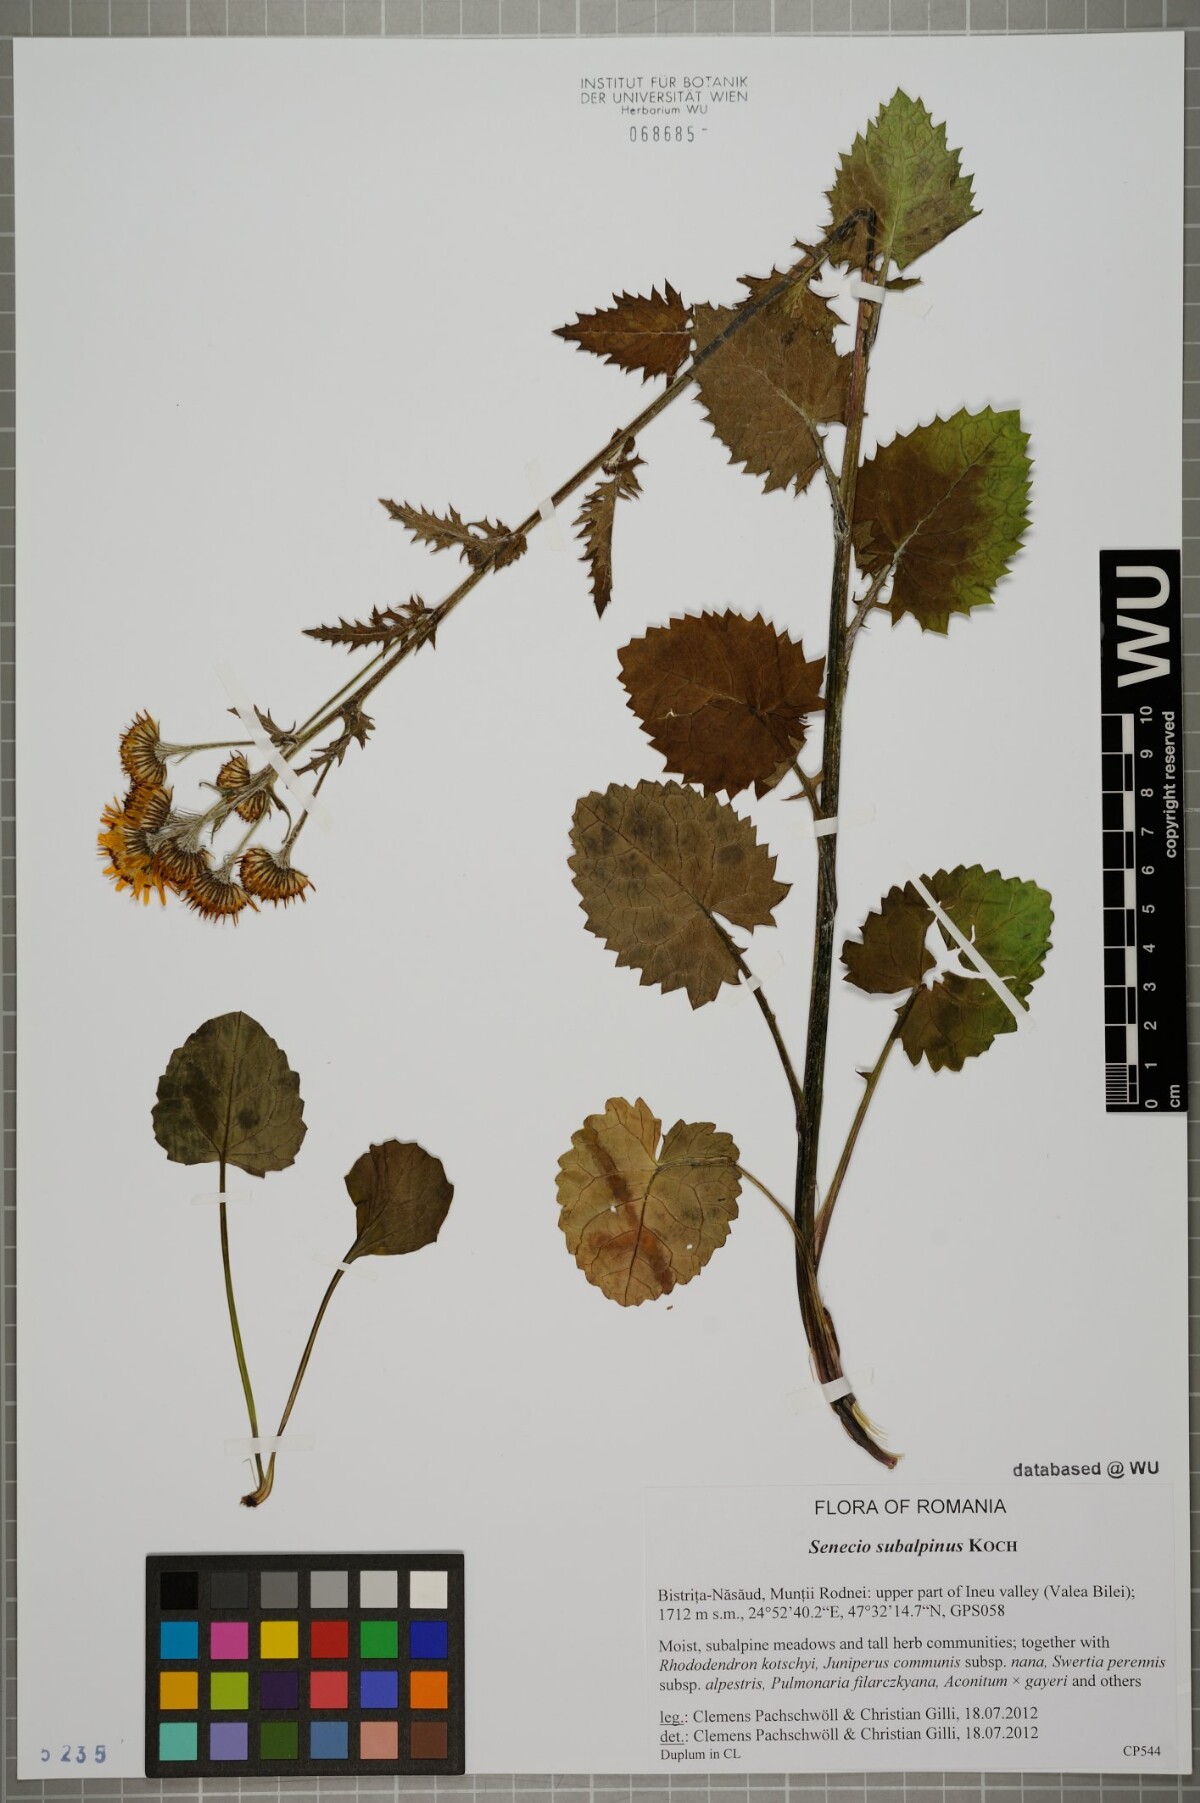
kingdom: Plantae
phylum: Tracheophyta
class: Magnoliopsida
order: Asterales
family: Asteraceae
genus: Jacobaea
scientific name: Jacobaea subalpina
